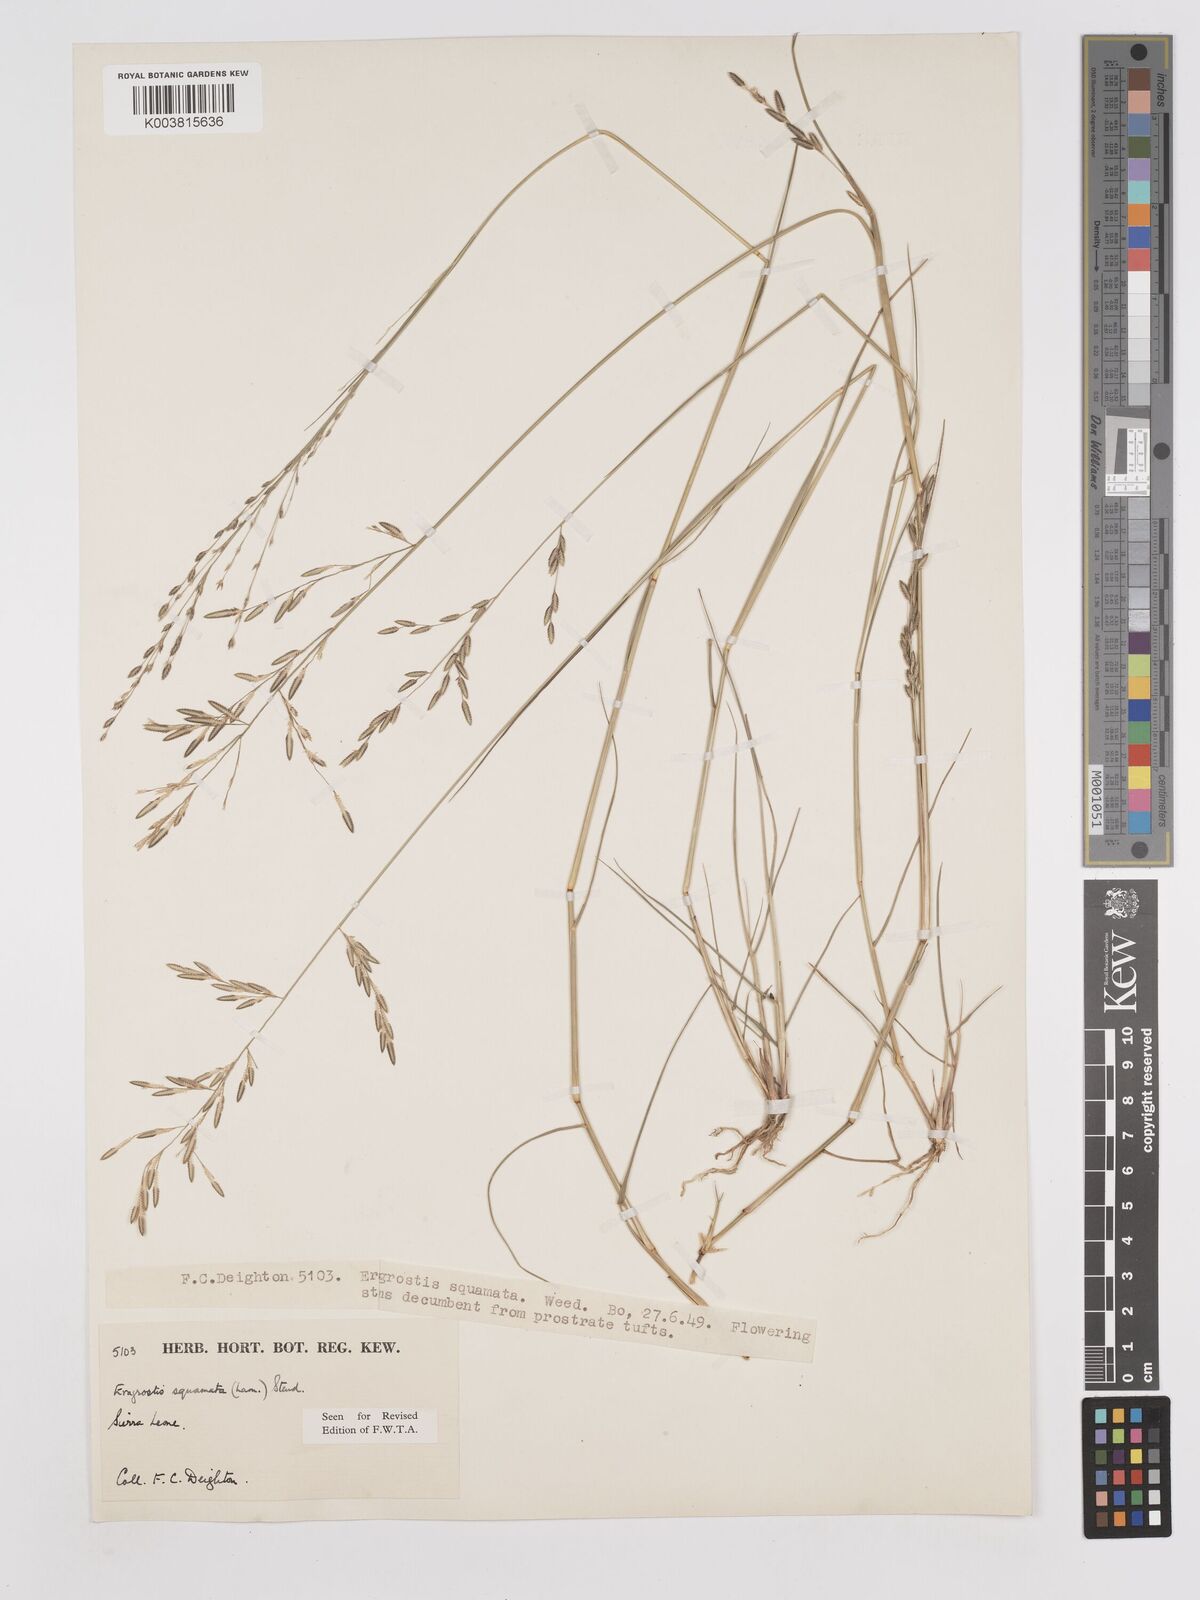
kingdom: Plantae
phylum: Tracheophyta
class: Liliopsida
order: Poales
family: Poaceae
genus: Eragrostis
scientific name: Eragrostis squamata
